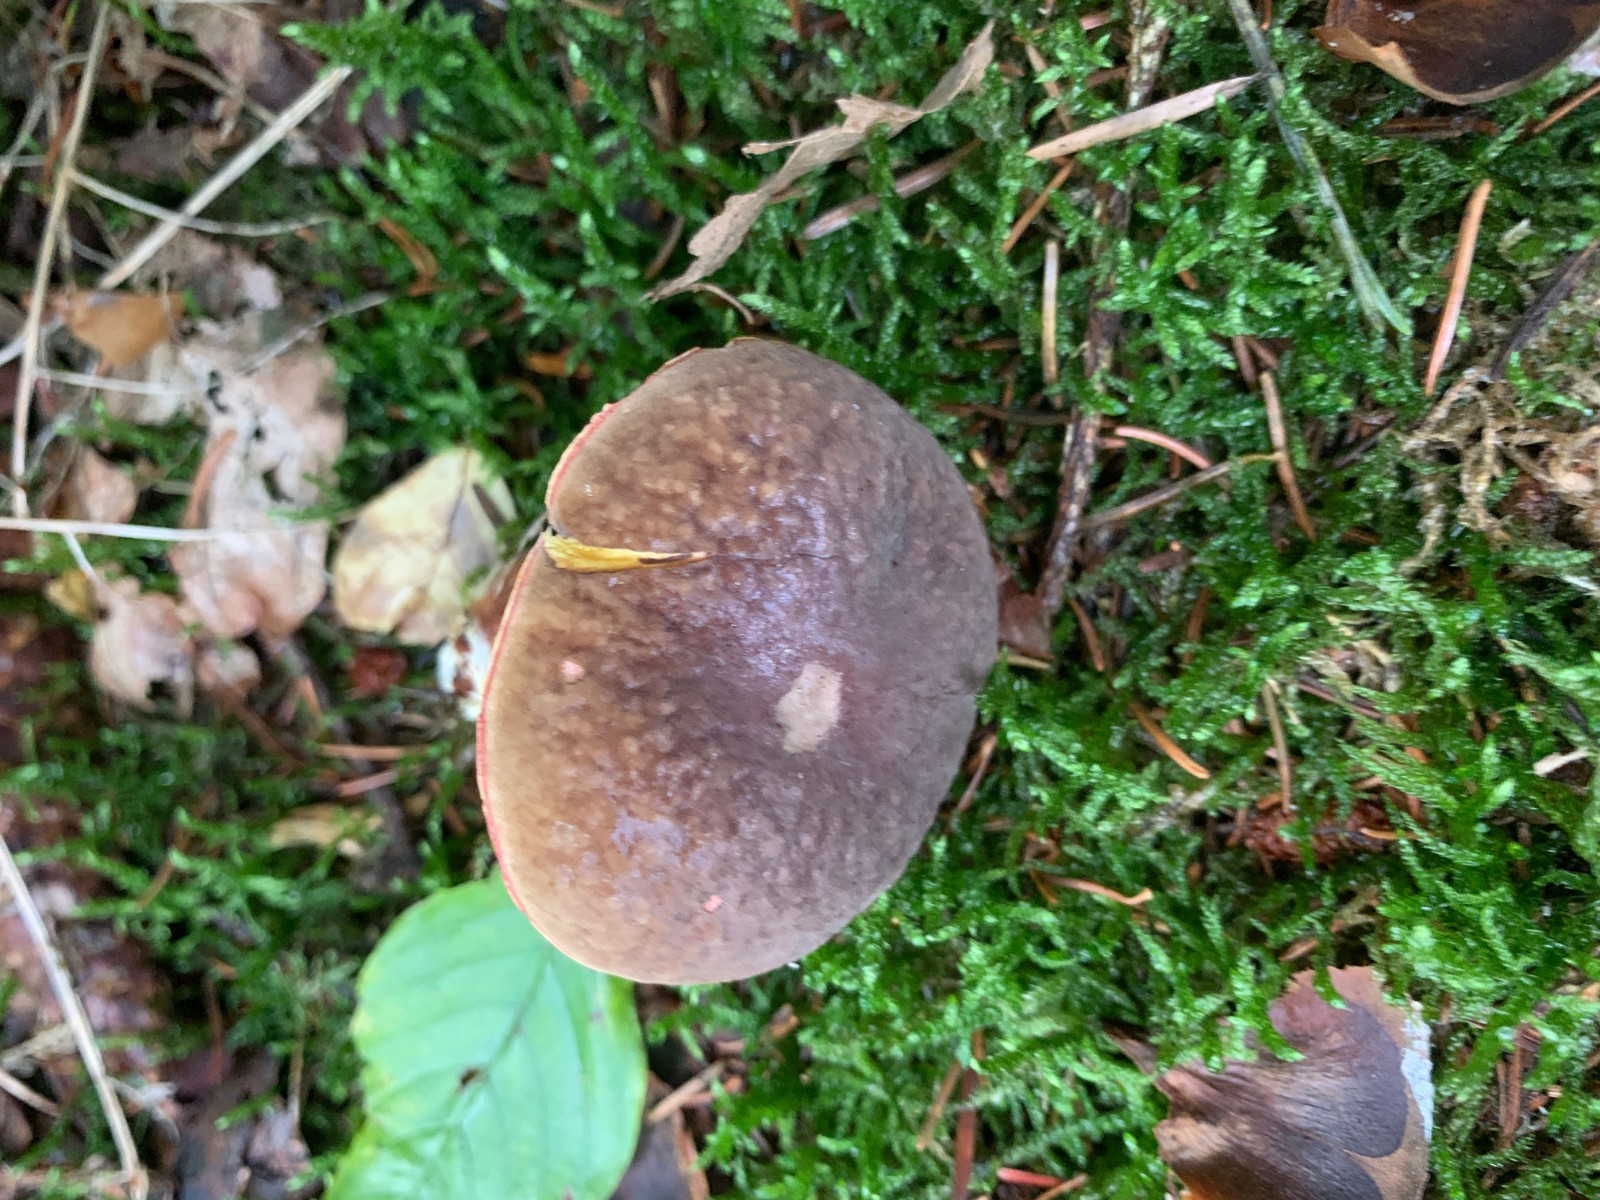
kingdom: Fungi
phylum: Basidiomycota
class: Agaricomycetes
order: Boletales
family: Boletaceae
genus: Xerocomellus
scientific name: Xerocomellus pruinatus
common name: dugget rørhat
